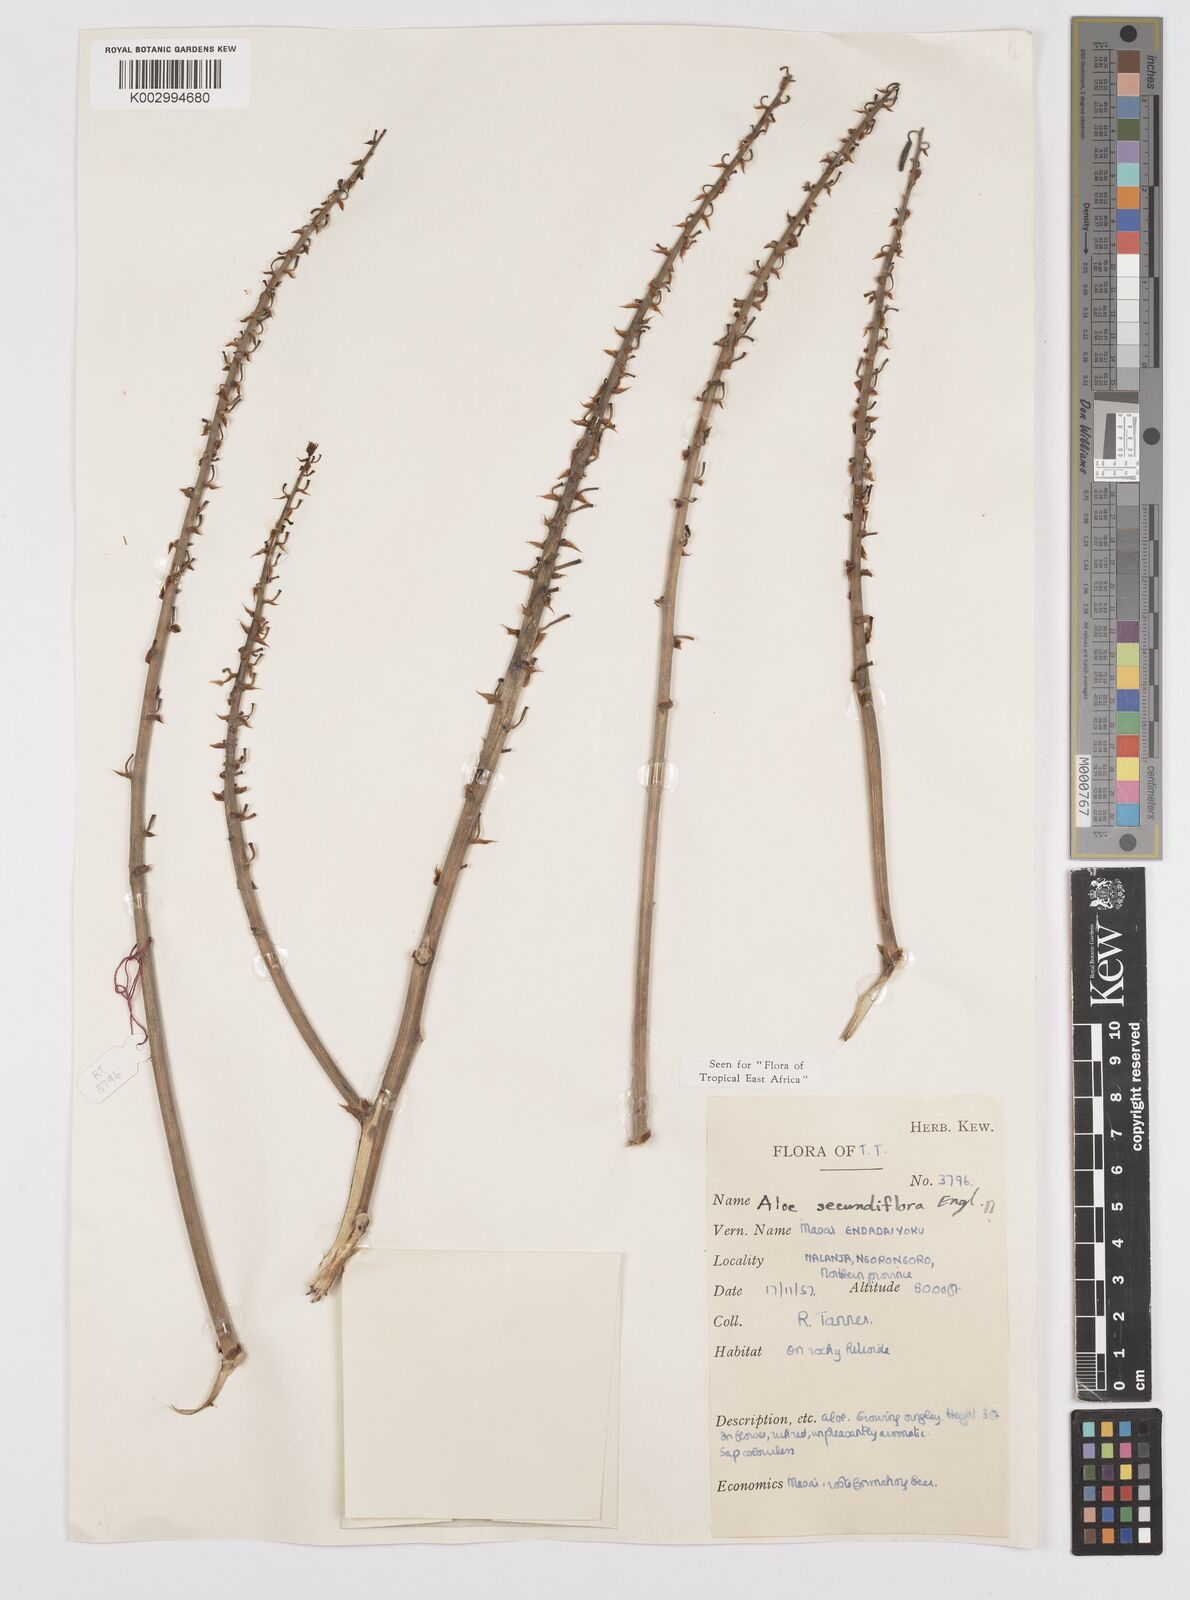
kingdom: Plantae
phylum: Tracheophyta
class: Liliopsida
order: Asparagales
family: Asphodelaceae
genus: Aloe
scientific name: Aloe secundiflora
